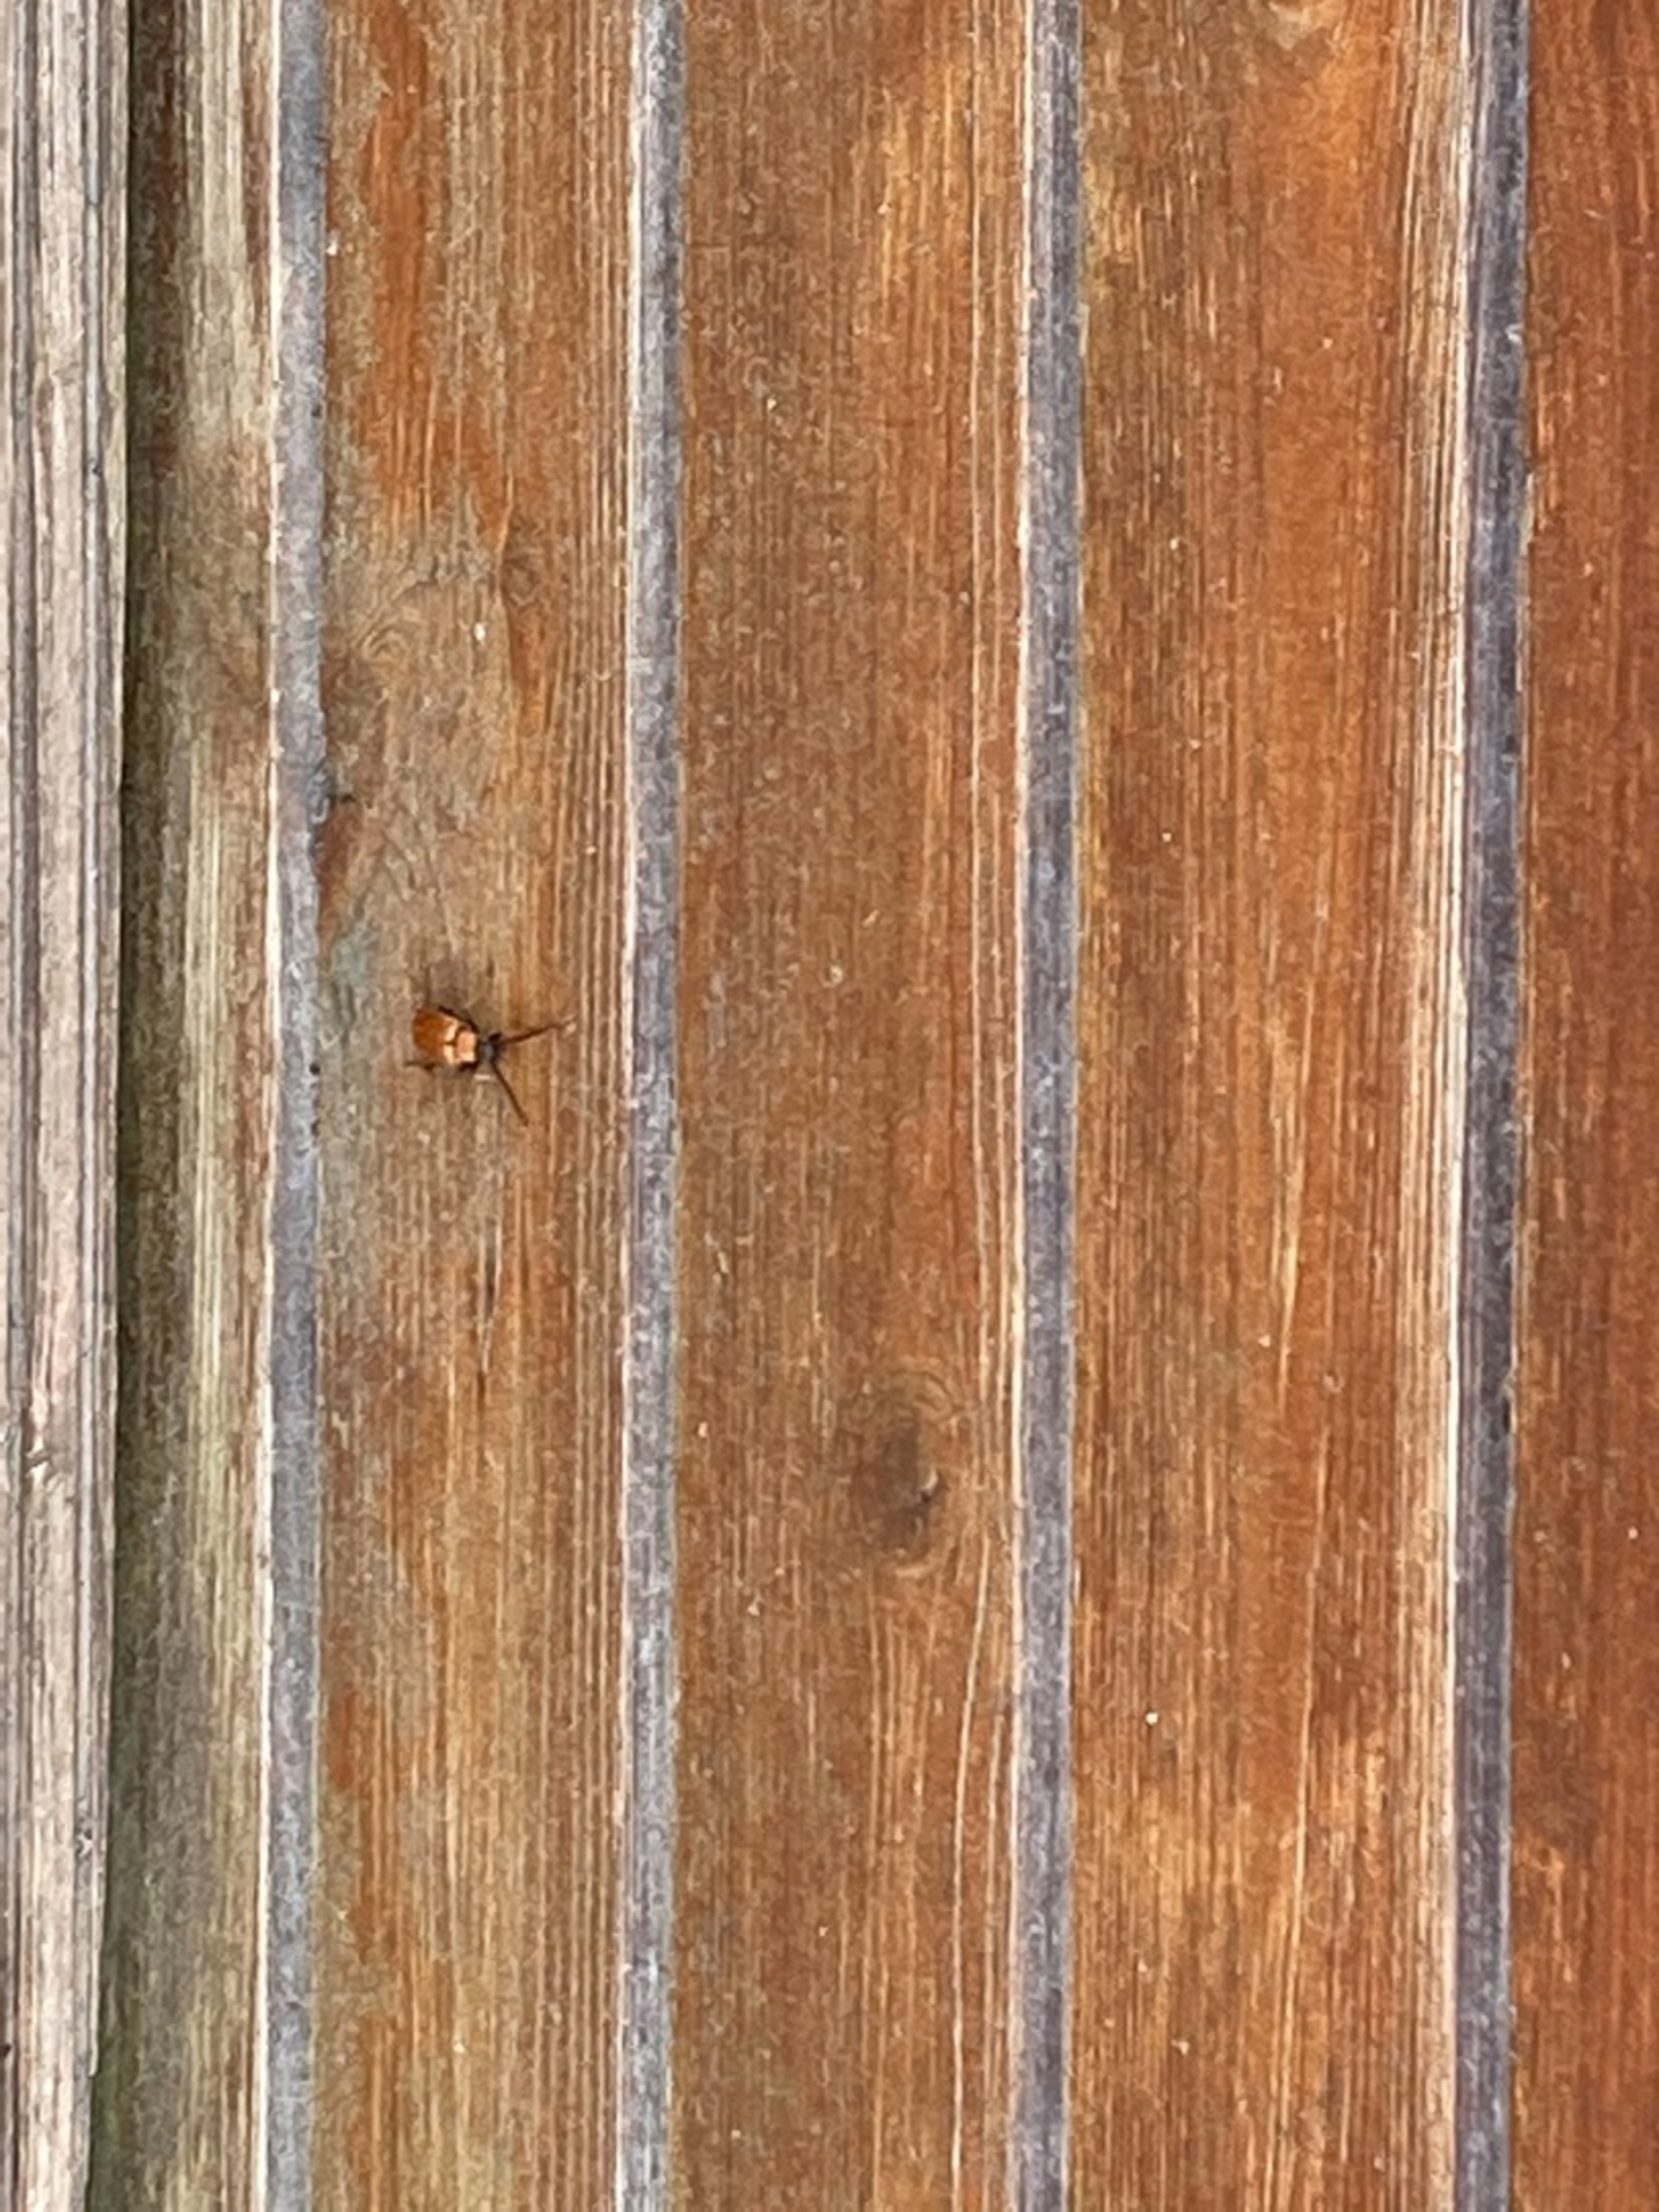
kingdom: Animalia
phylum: Arthropoda
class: Insecta
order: Coleoptera
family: Cerambycidae
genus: Stictoleptura
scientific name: Stictoleptura rubra
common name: Rød blomsterbuk
